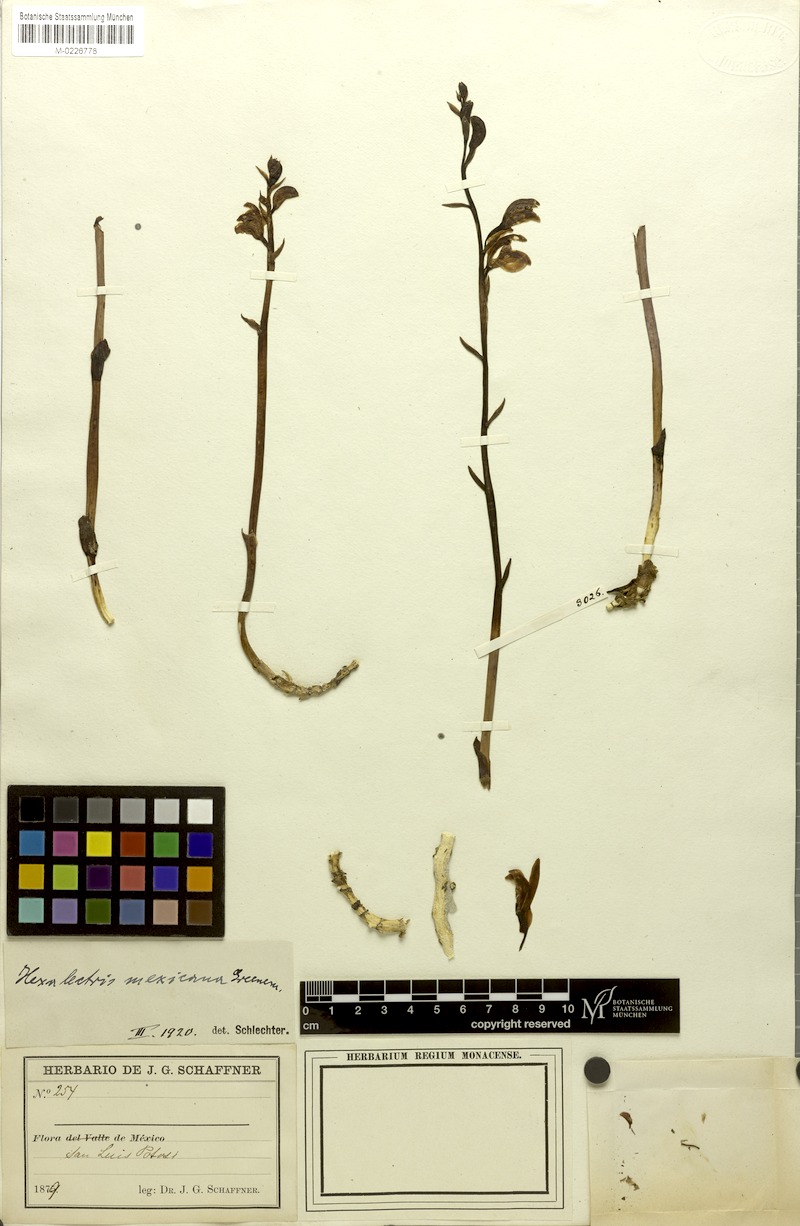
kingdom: Plantae
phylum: Tracheophyta
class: Liliopsida
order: Asparagales
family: Orchidaceae
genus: Bletia
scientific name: Bletia mexicana
